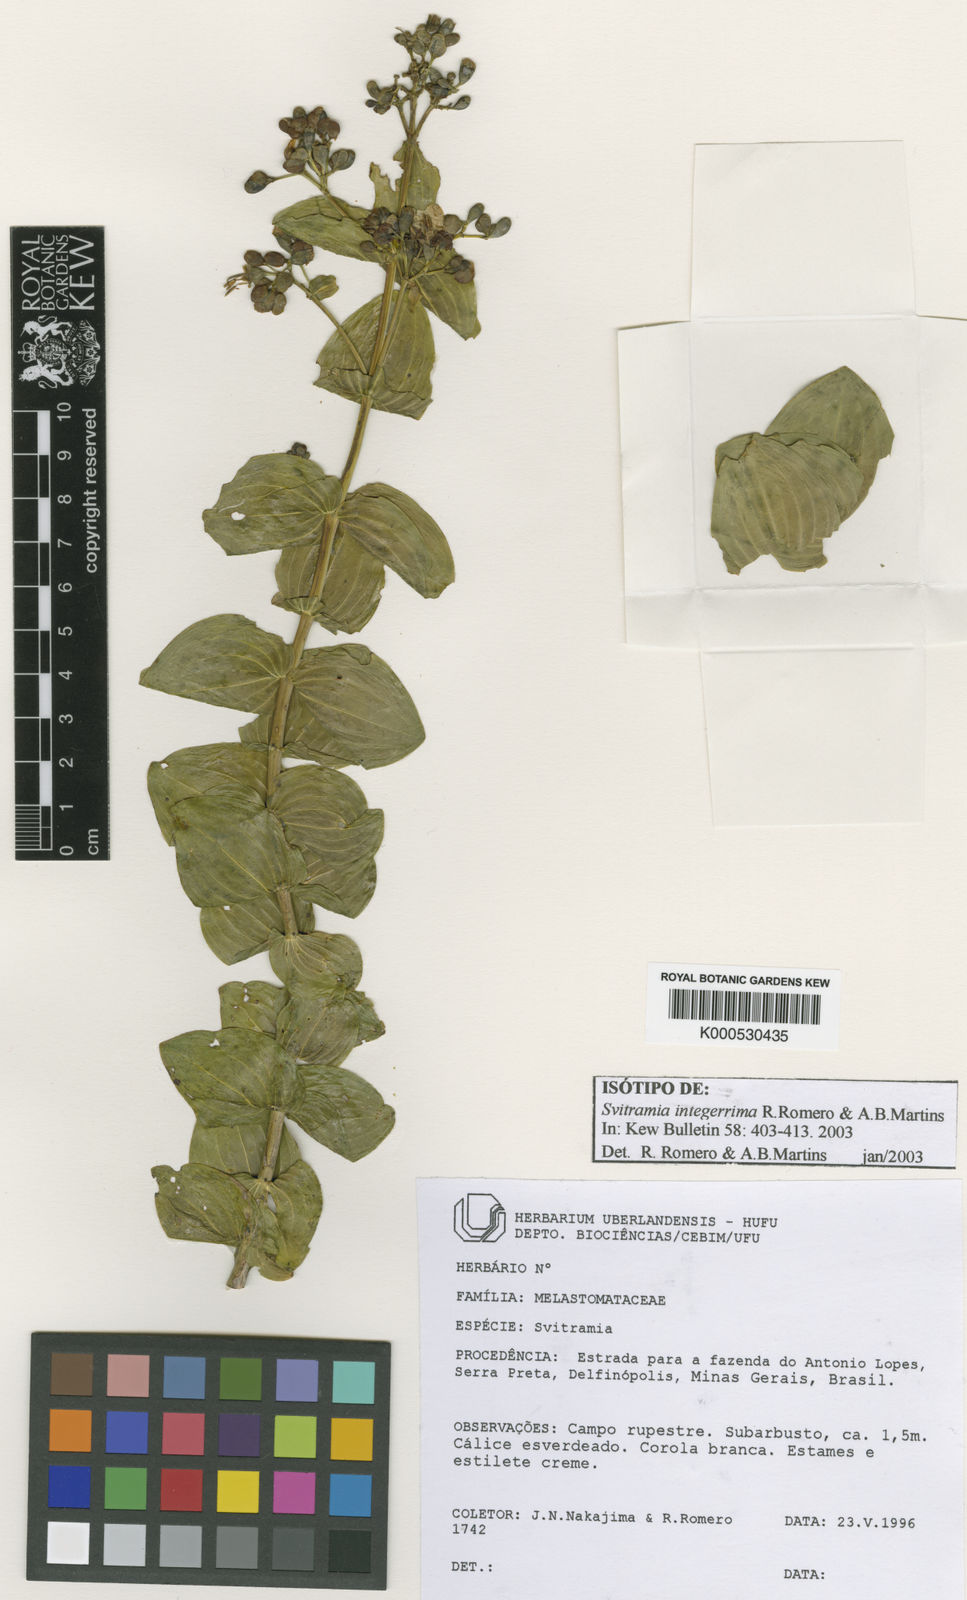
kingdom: Plantae
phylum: Tracheophyta
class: Magnoliopsida
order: Myrtales
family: Melastomataceae
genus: Pleroma
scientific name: Pleroma integerrimum
